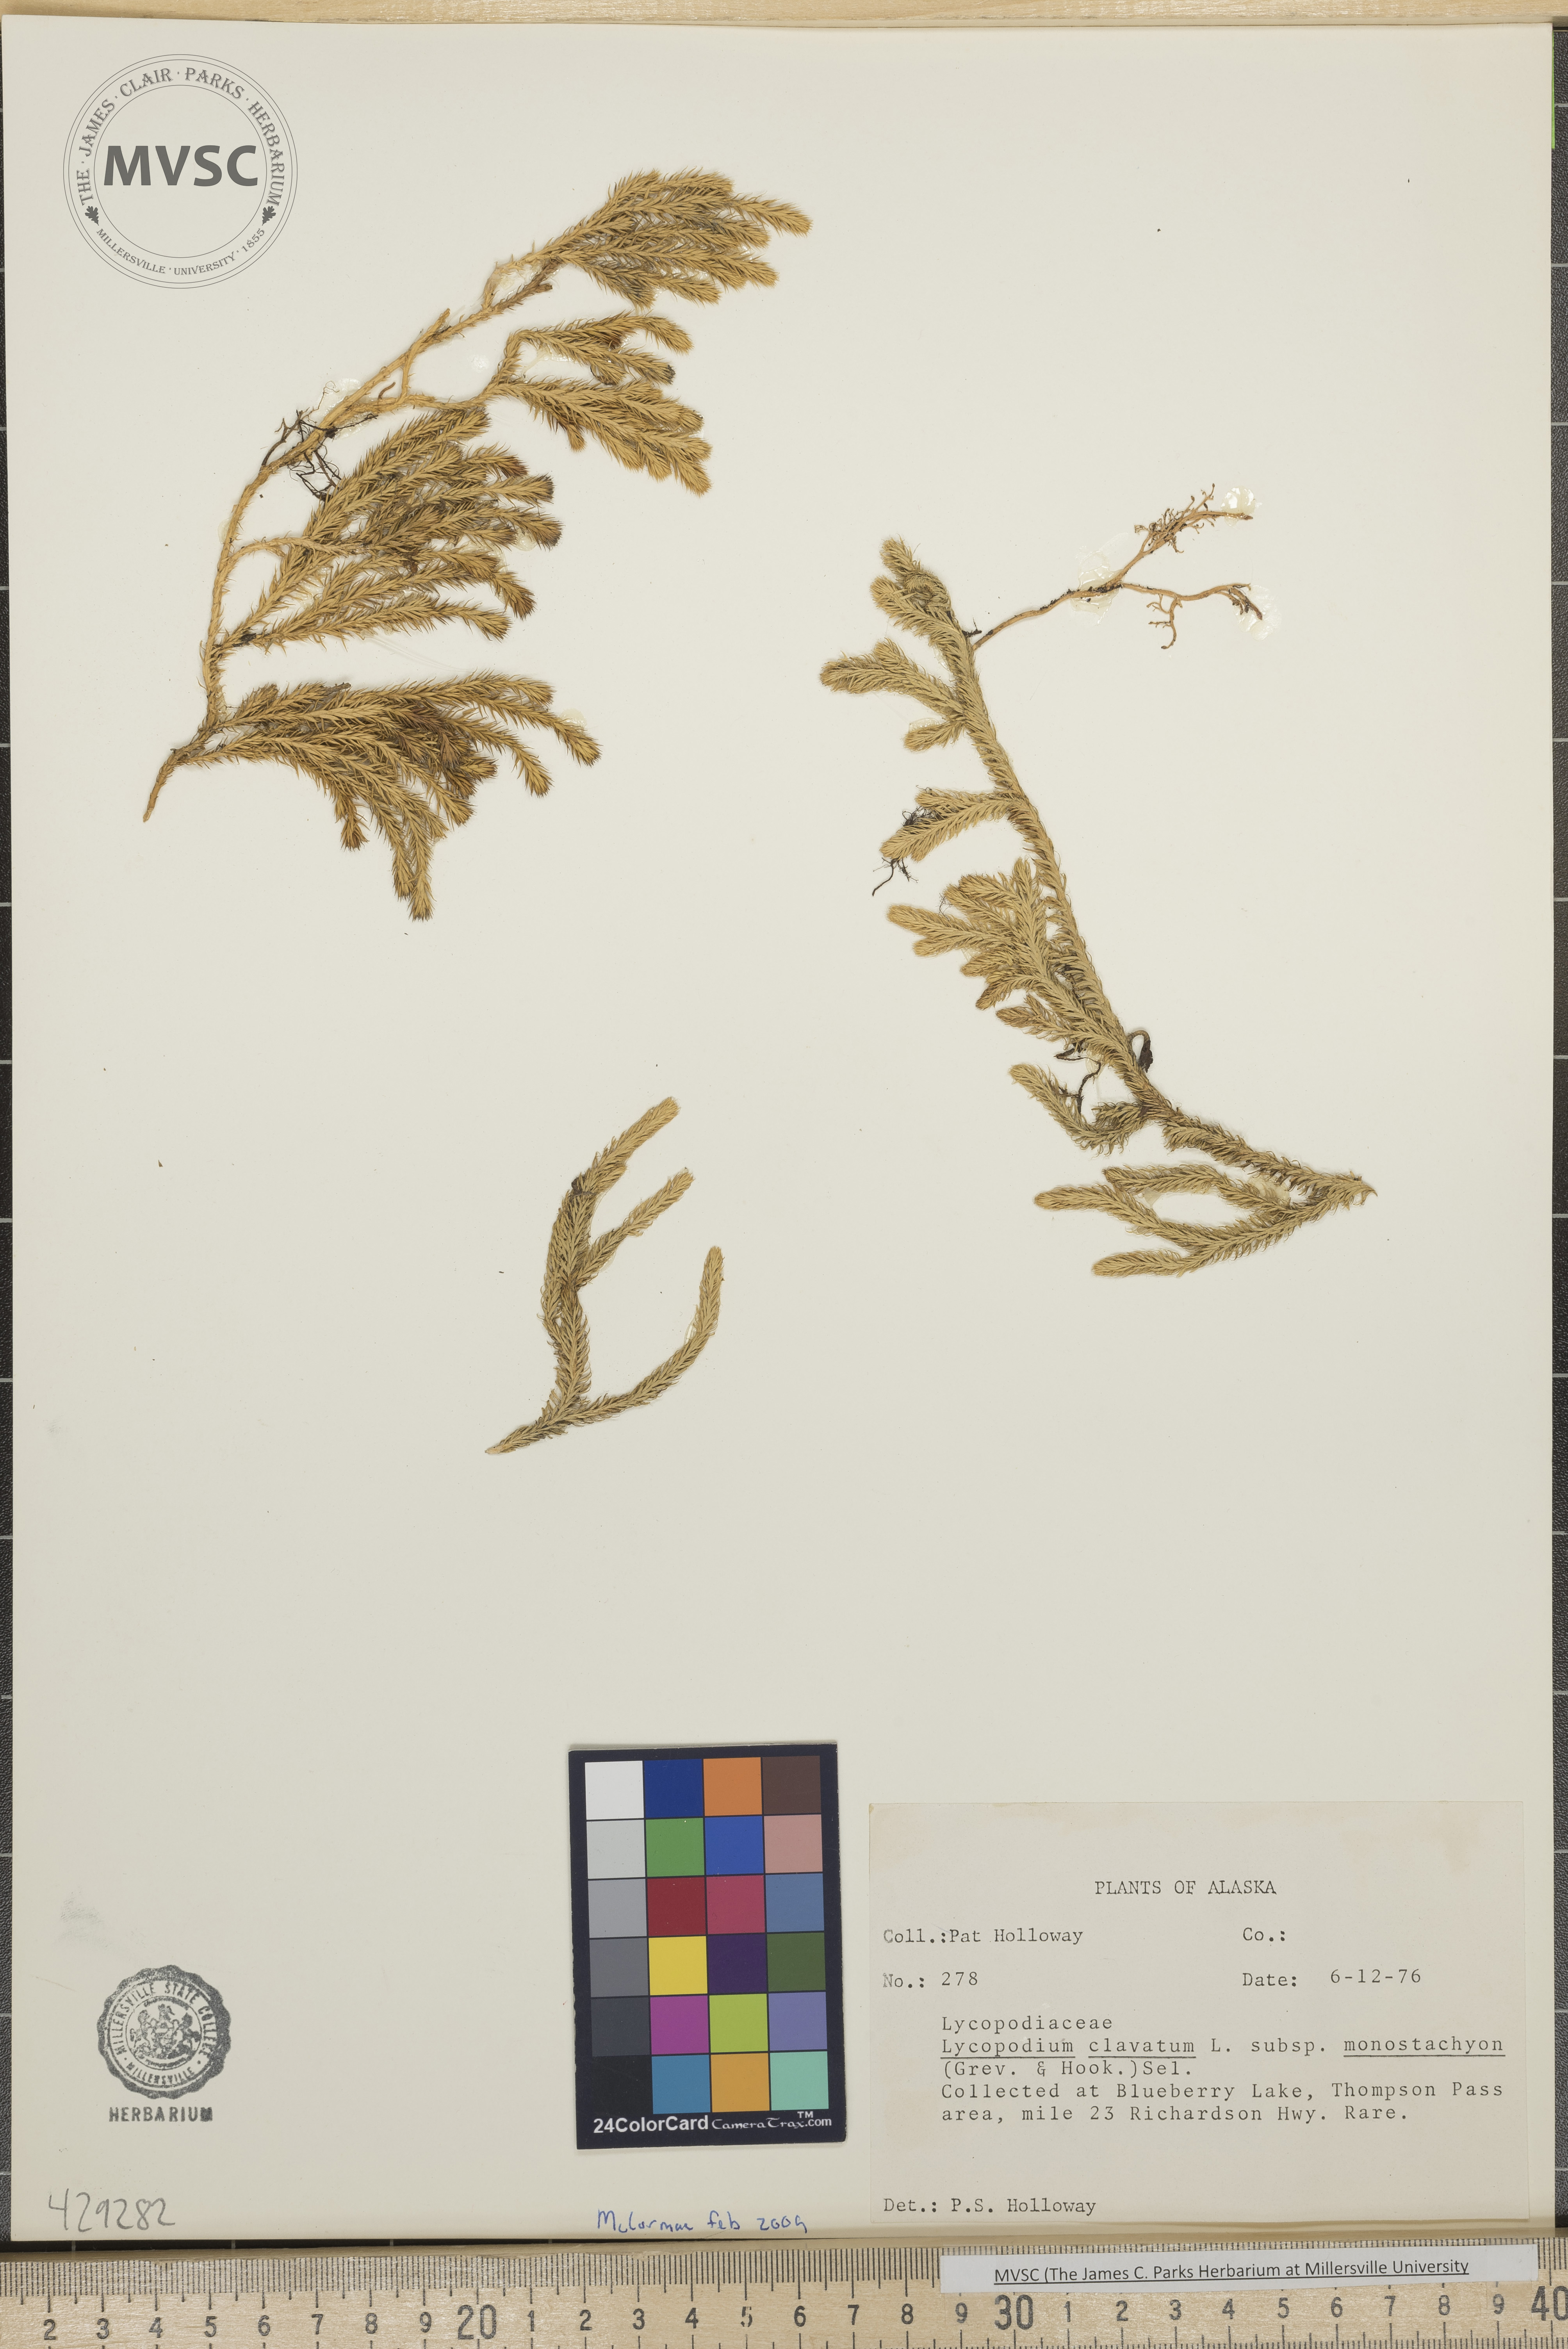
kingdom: Plantae
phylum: Tracheophyta
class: Lycopodiopsida
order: Lycopodiales
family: Lycopodiaceae
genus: Lycopodium
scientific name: Lycopodium clavatum
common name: Stag's-horn clubmoss
